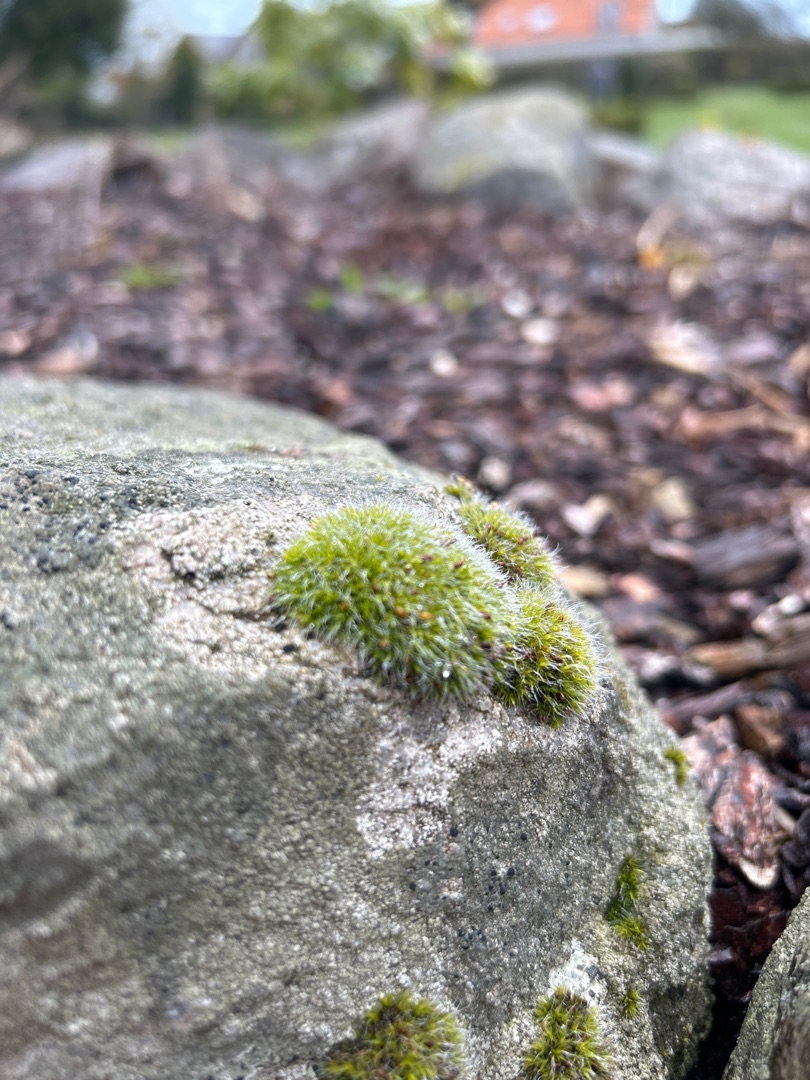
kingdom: Plantae
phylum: Bryophyta
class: Bryopsida
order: Grimmiales
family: Grimmiaceae
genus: Grimmia
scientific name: Grimmia pulvinata
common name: Pude-gråmos
